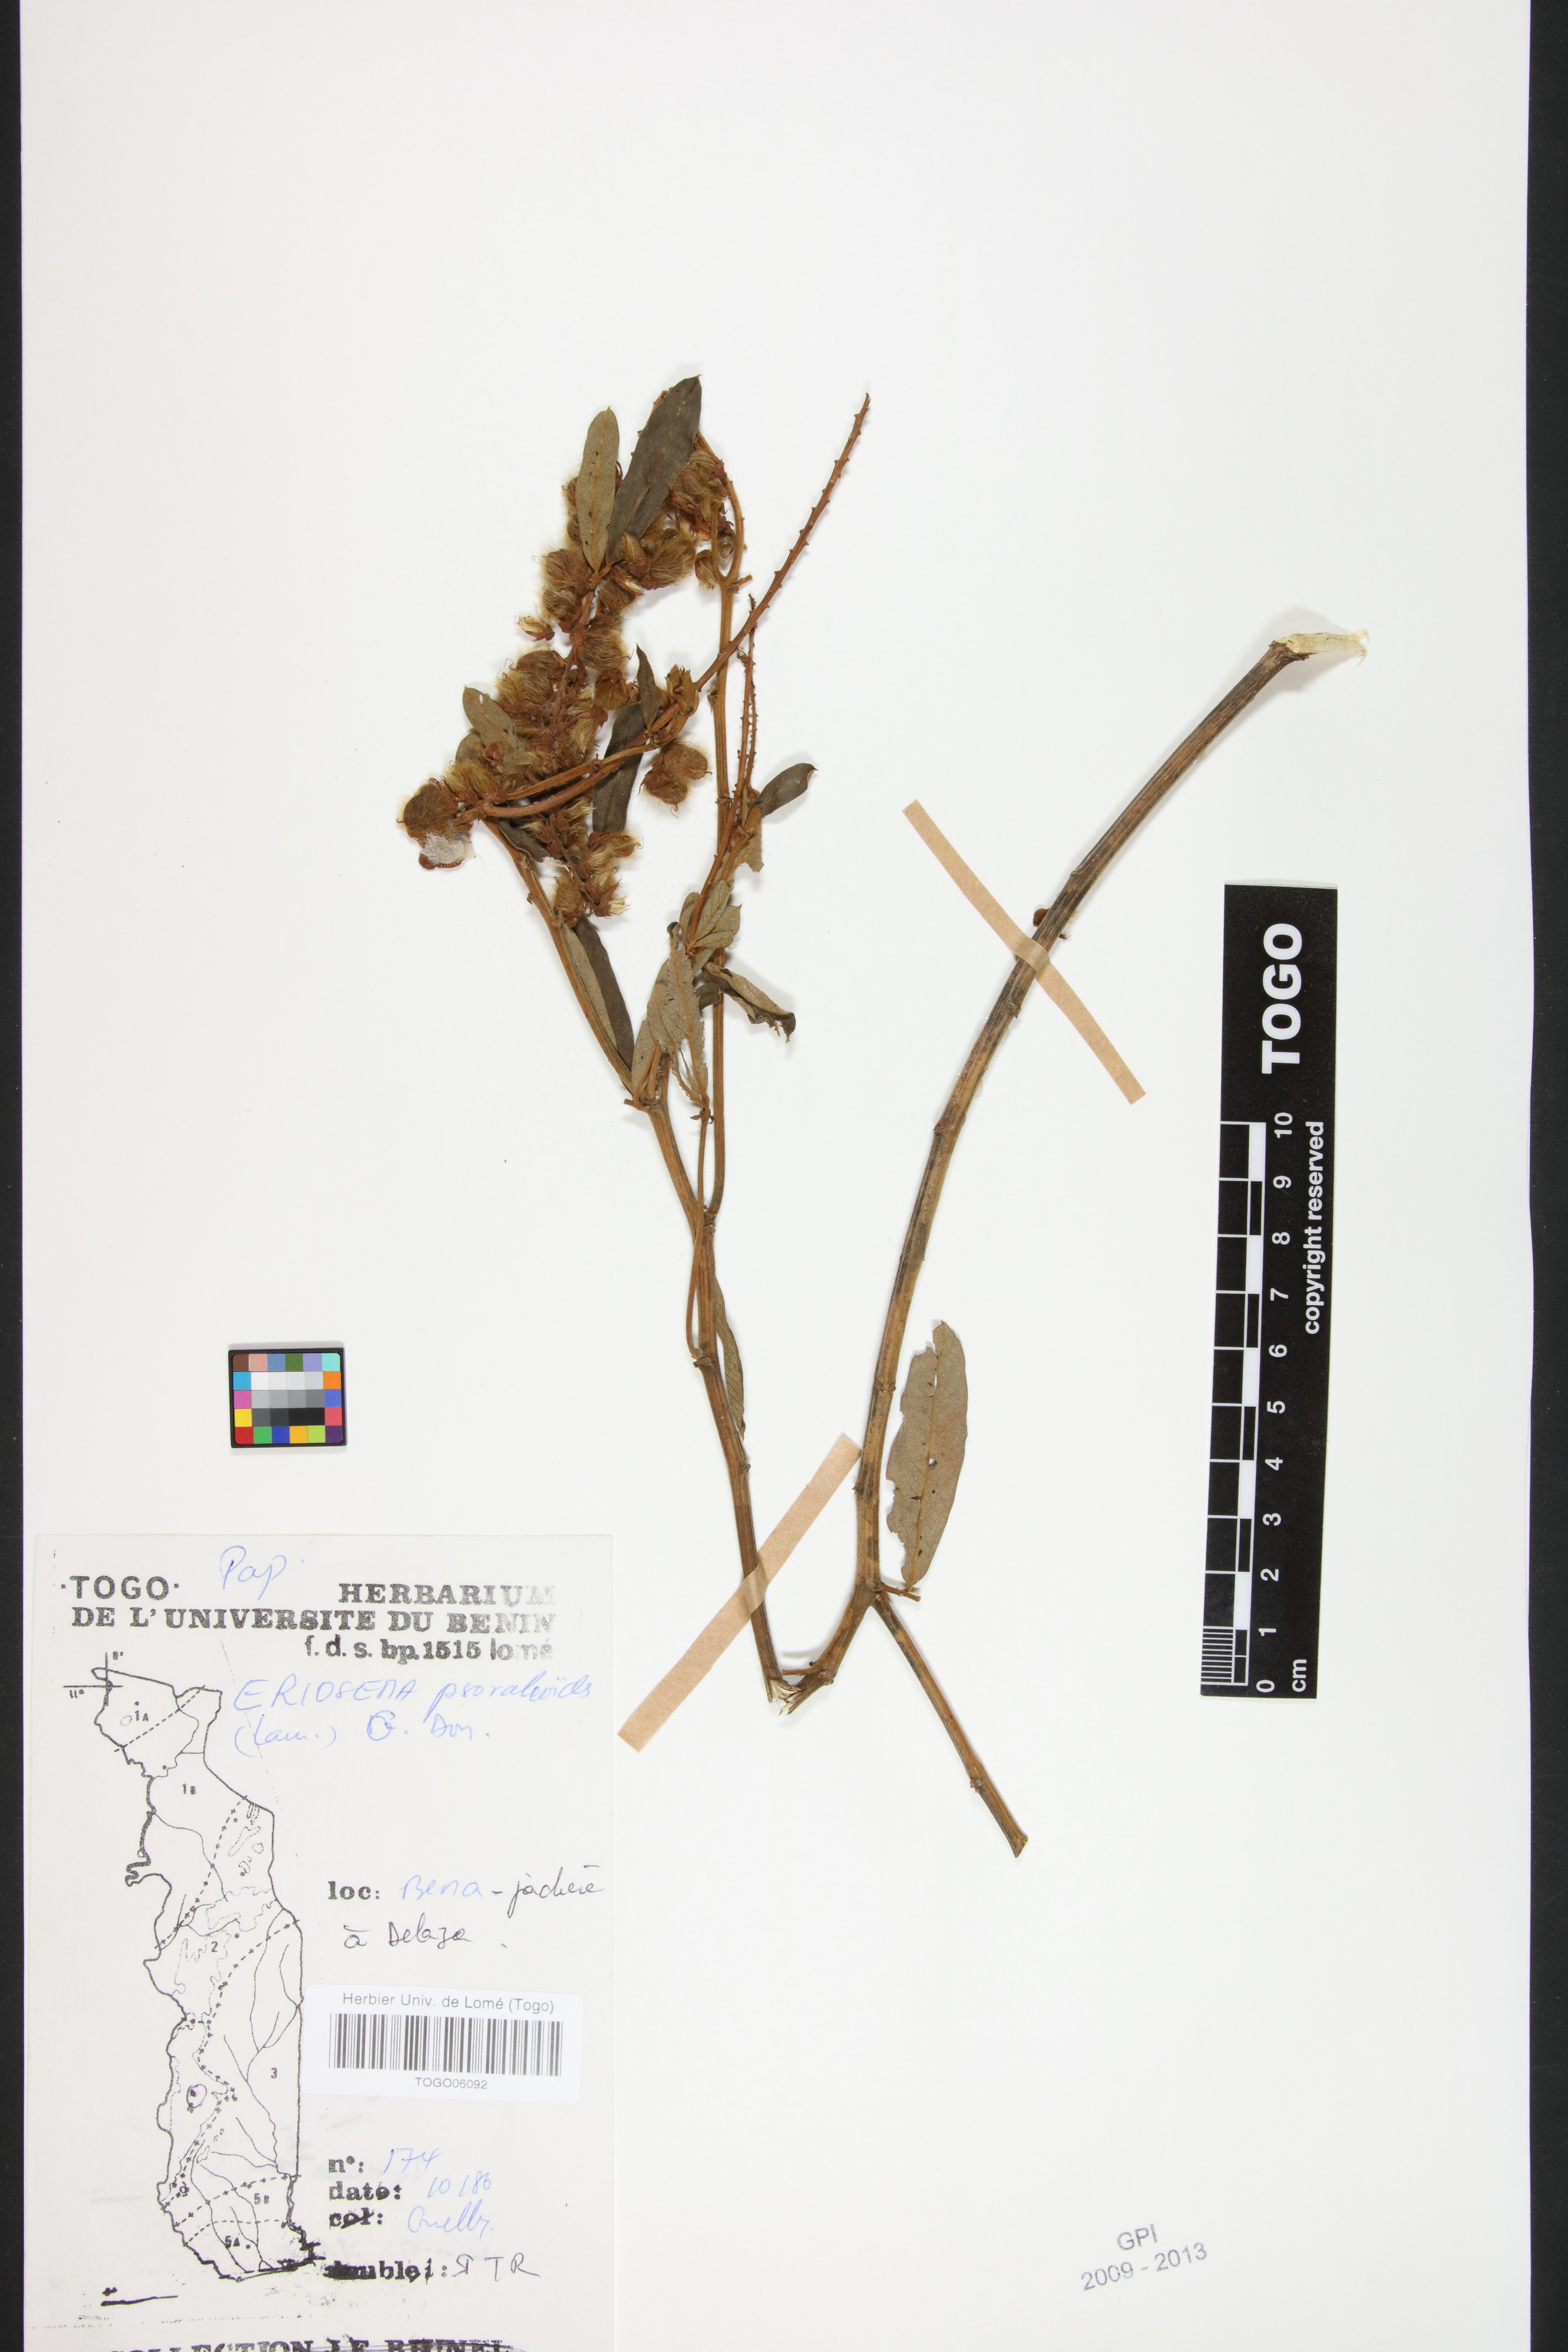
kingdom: Plantae
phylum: Tracheophyta
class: Magnoliopsida
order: Fabales
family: Fabaceae
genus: Eriosema
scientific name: Eriosema psoraleoides
